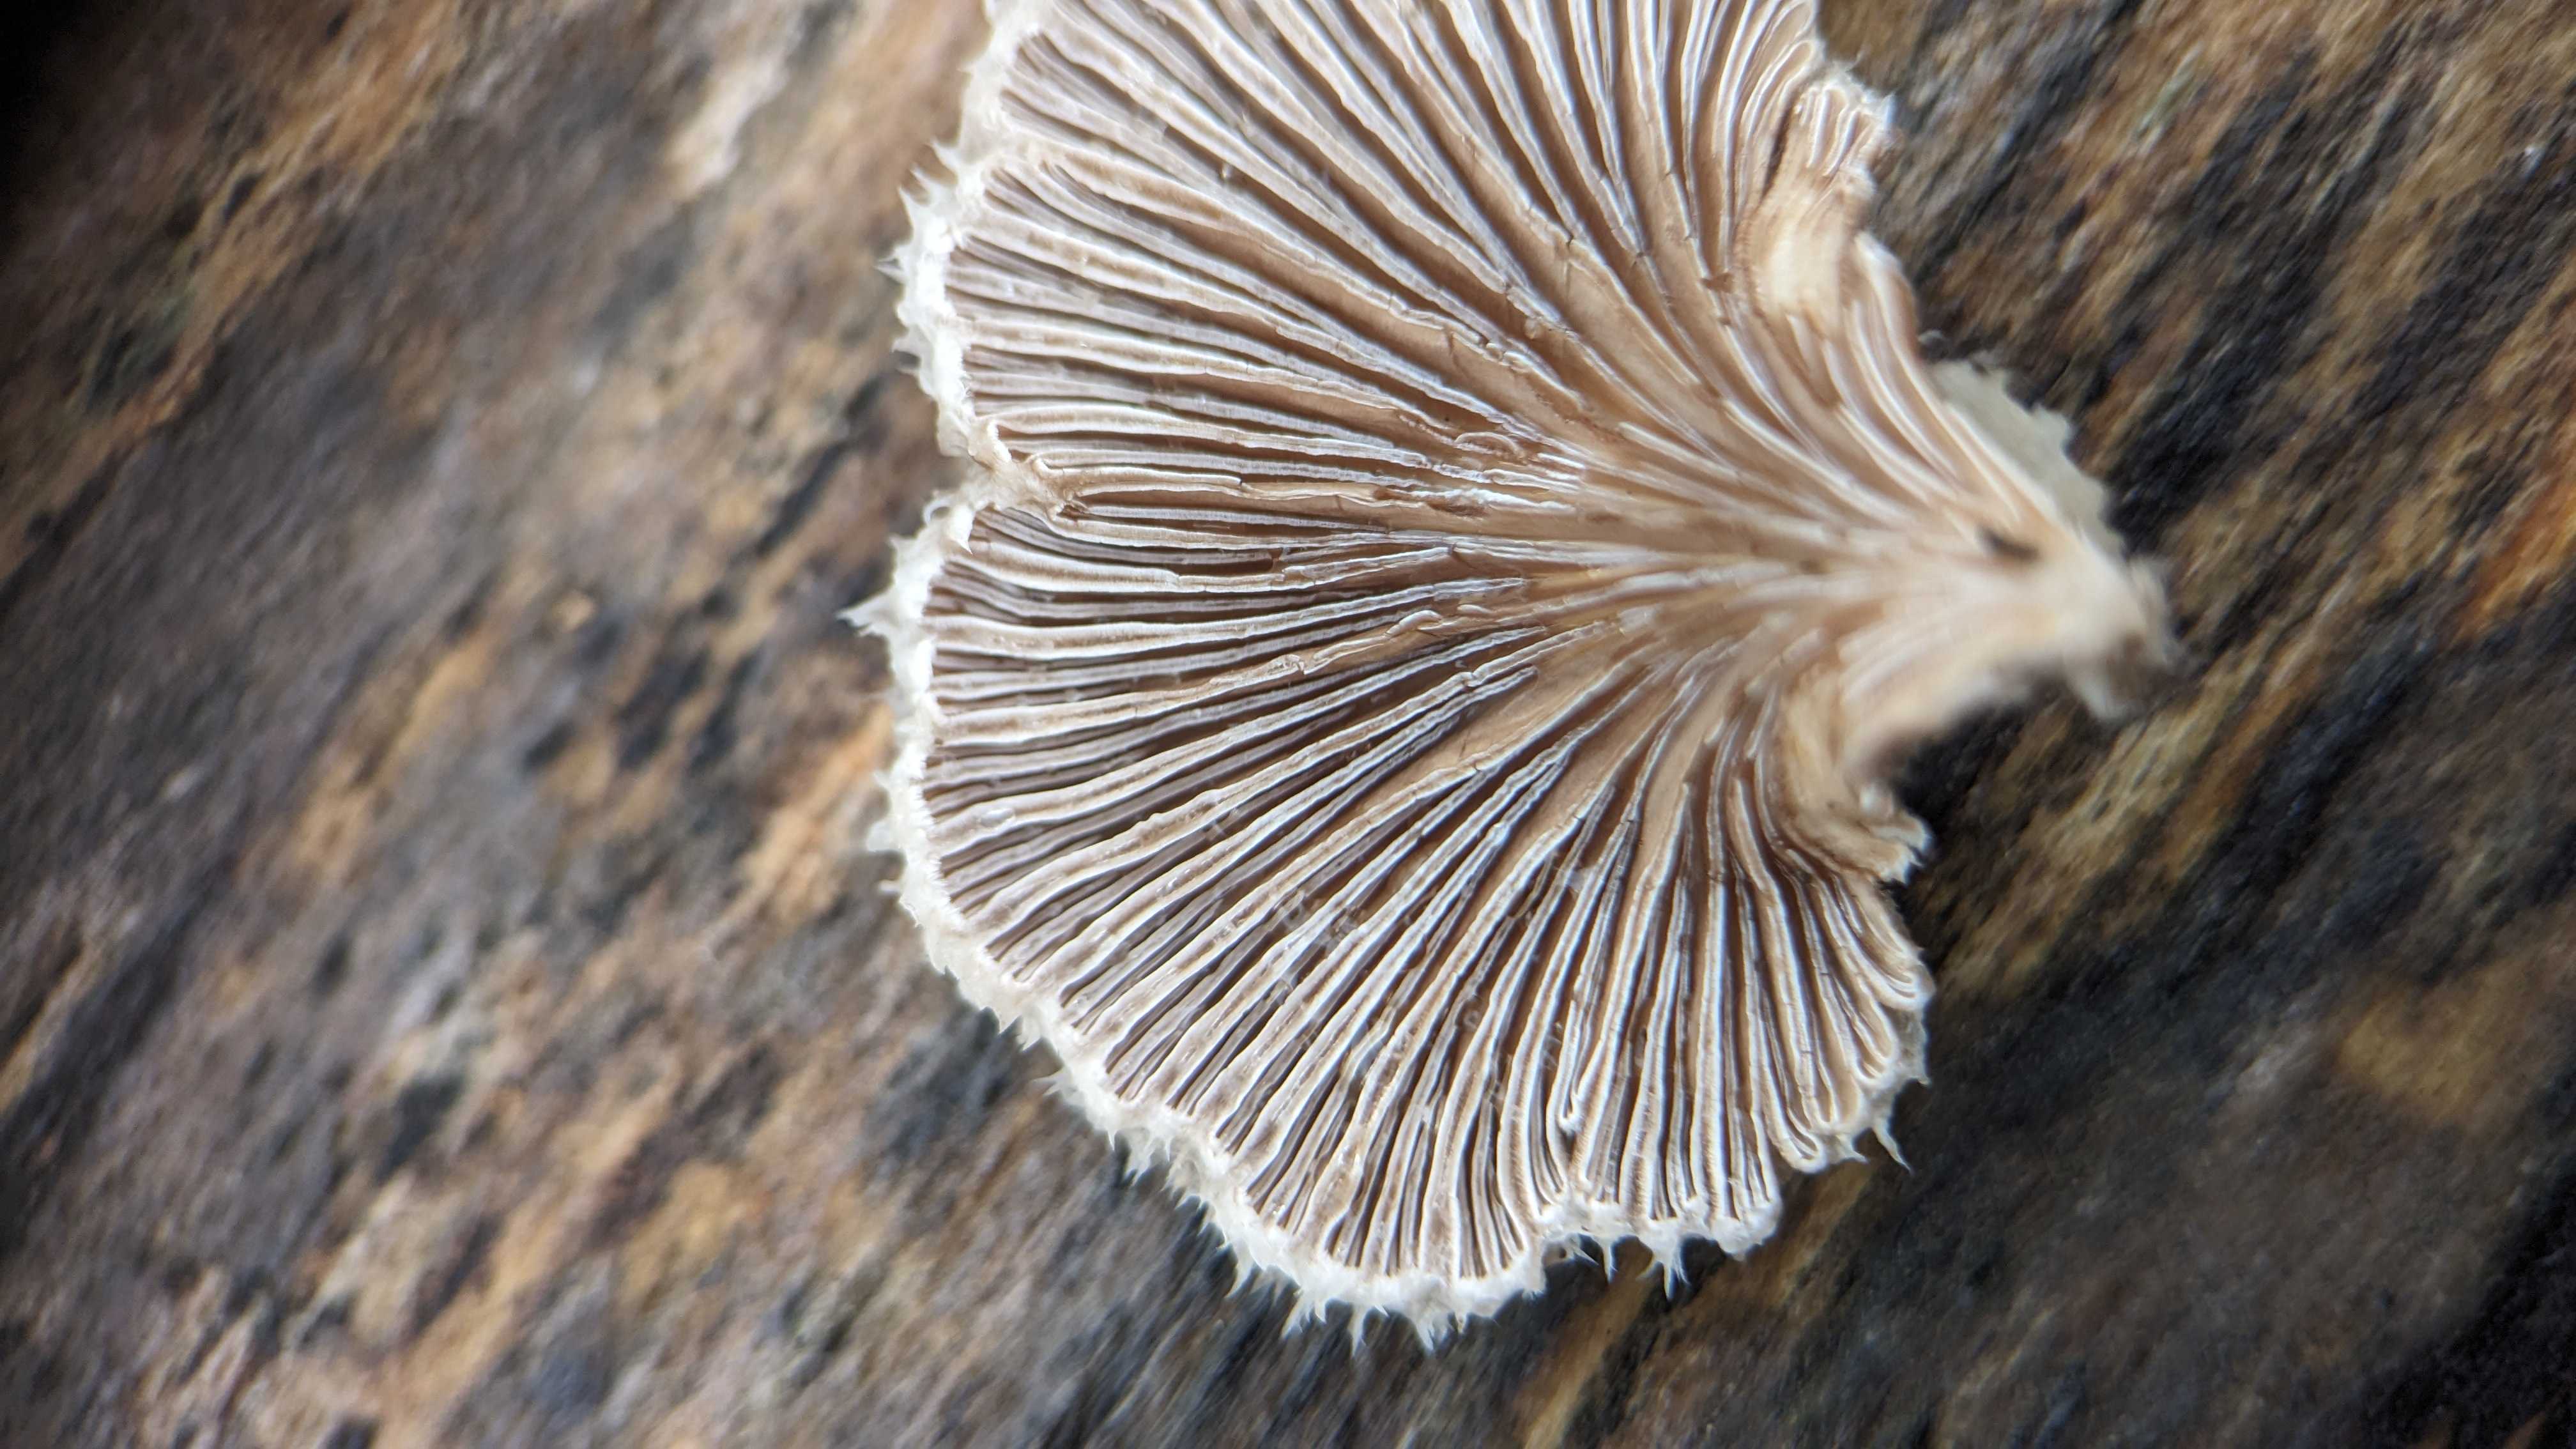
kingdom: Fungi
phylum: Basidiomycota
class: Agaricomycetes
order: Agaricales
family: Schizophyllaceae
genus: Schizophyllum
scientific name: Schizophyllum commune
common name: kløvblad
